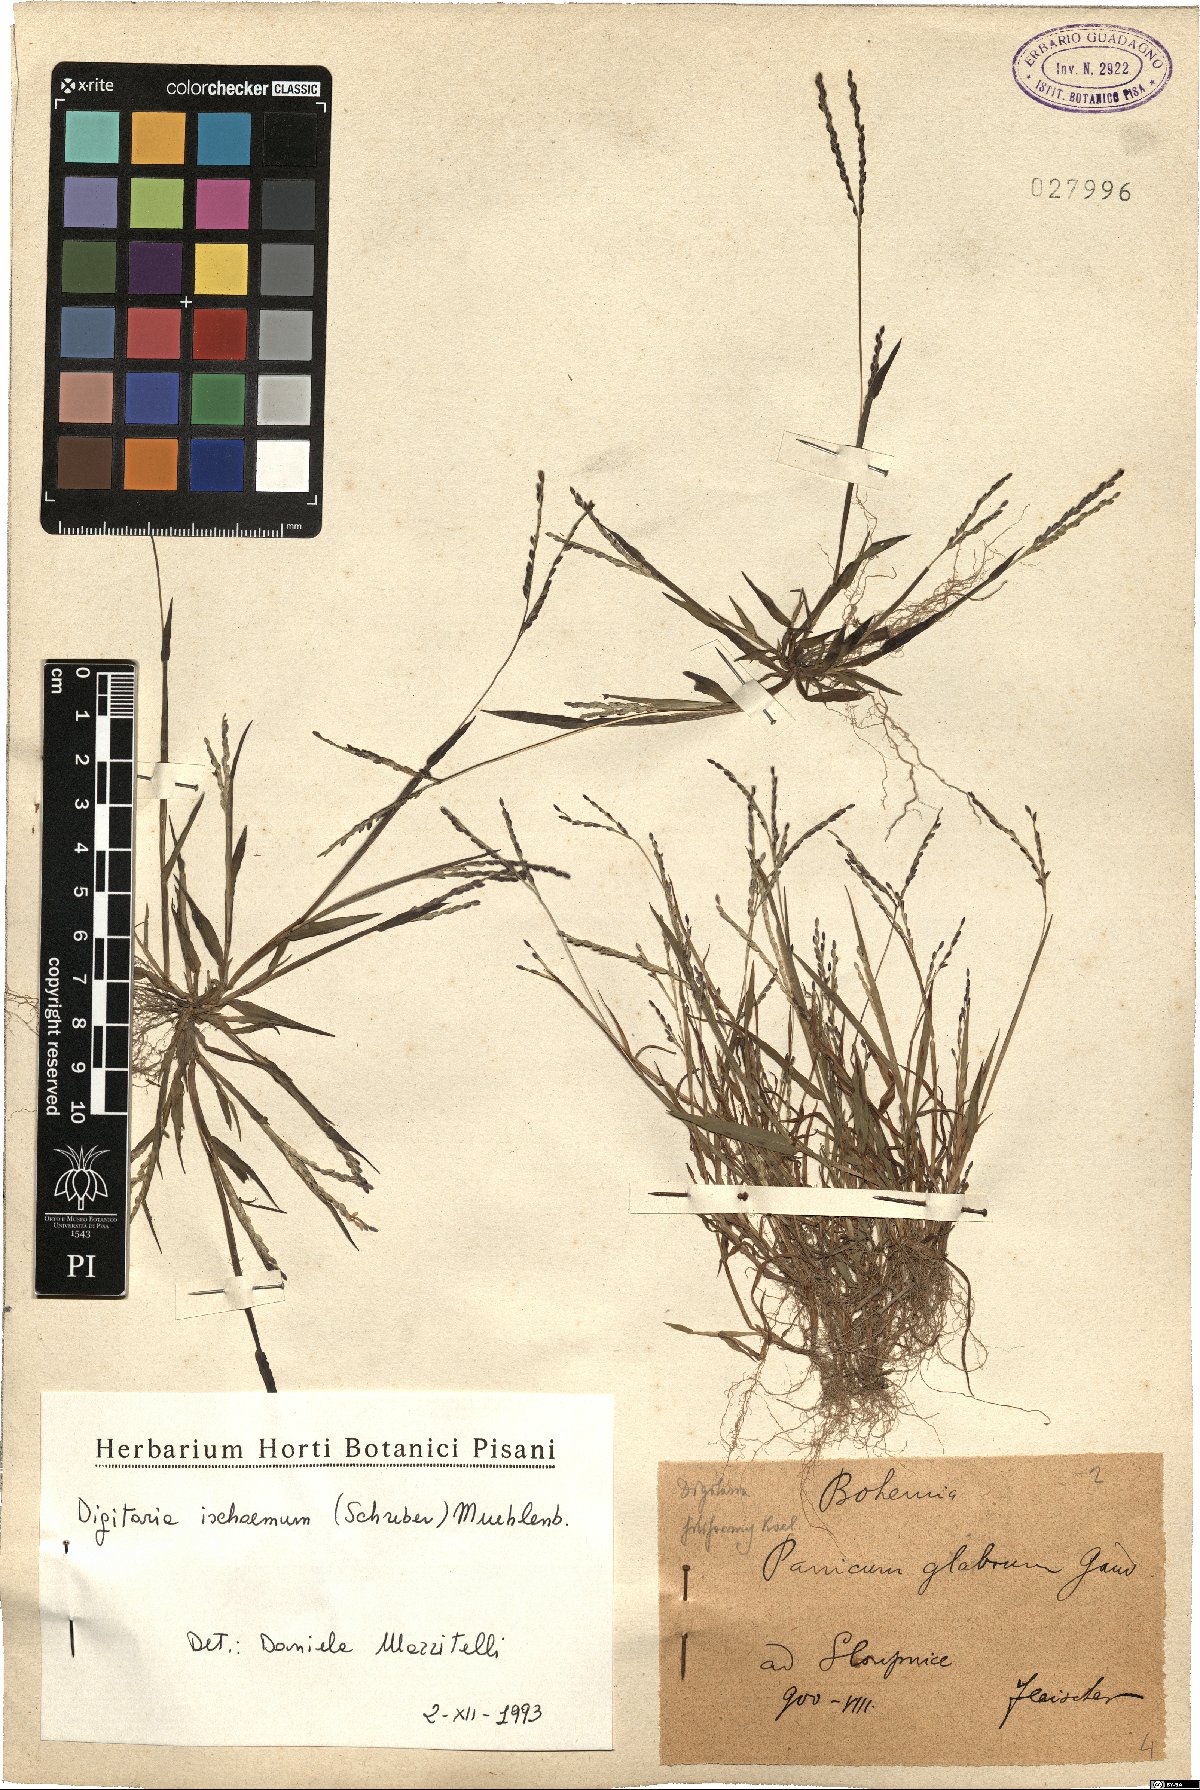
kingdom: Plantae
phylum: Tracheophyta
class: Liliopsida
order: Poales
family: Poaceae
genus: Digitaria
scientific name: Digitaria ischaemum
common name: Smooth crabgrass
